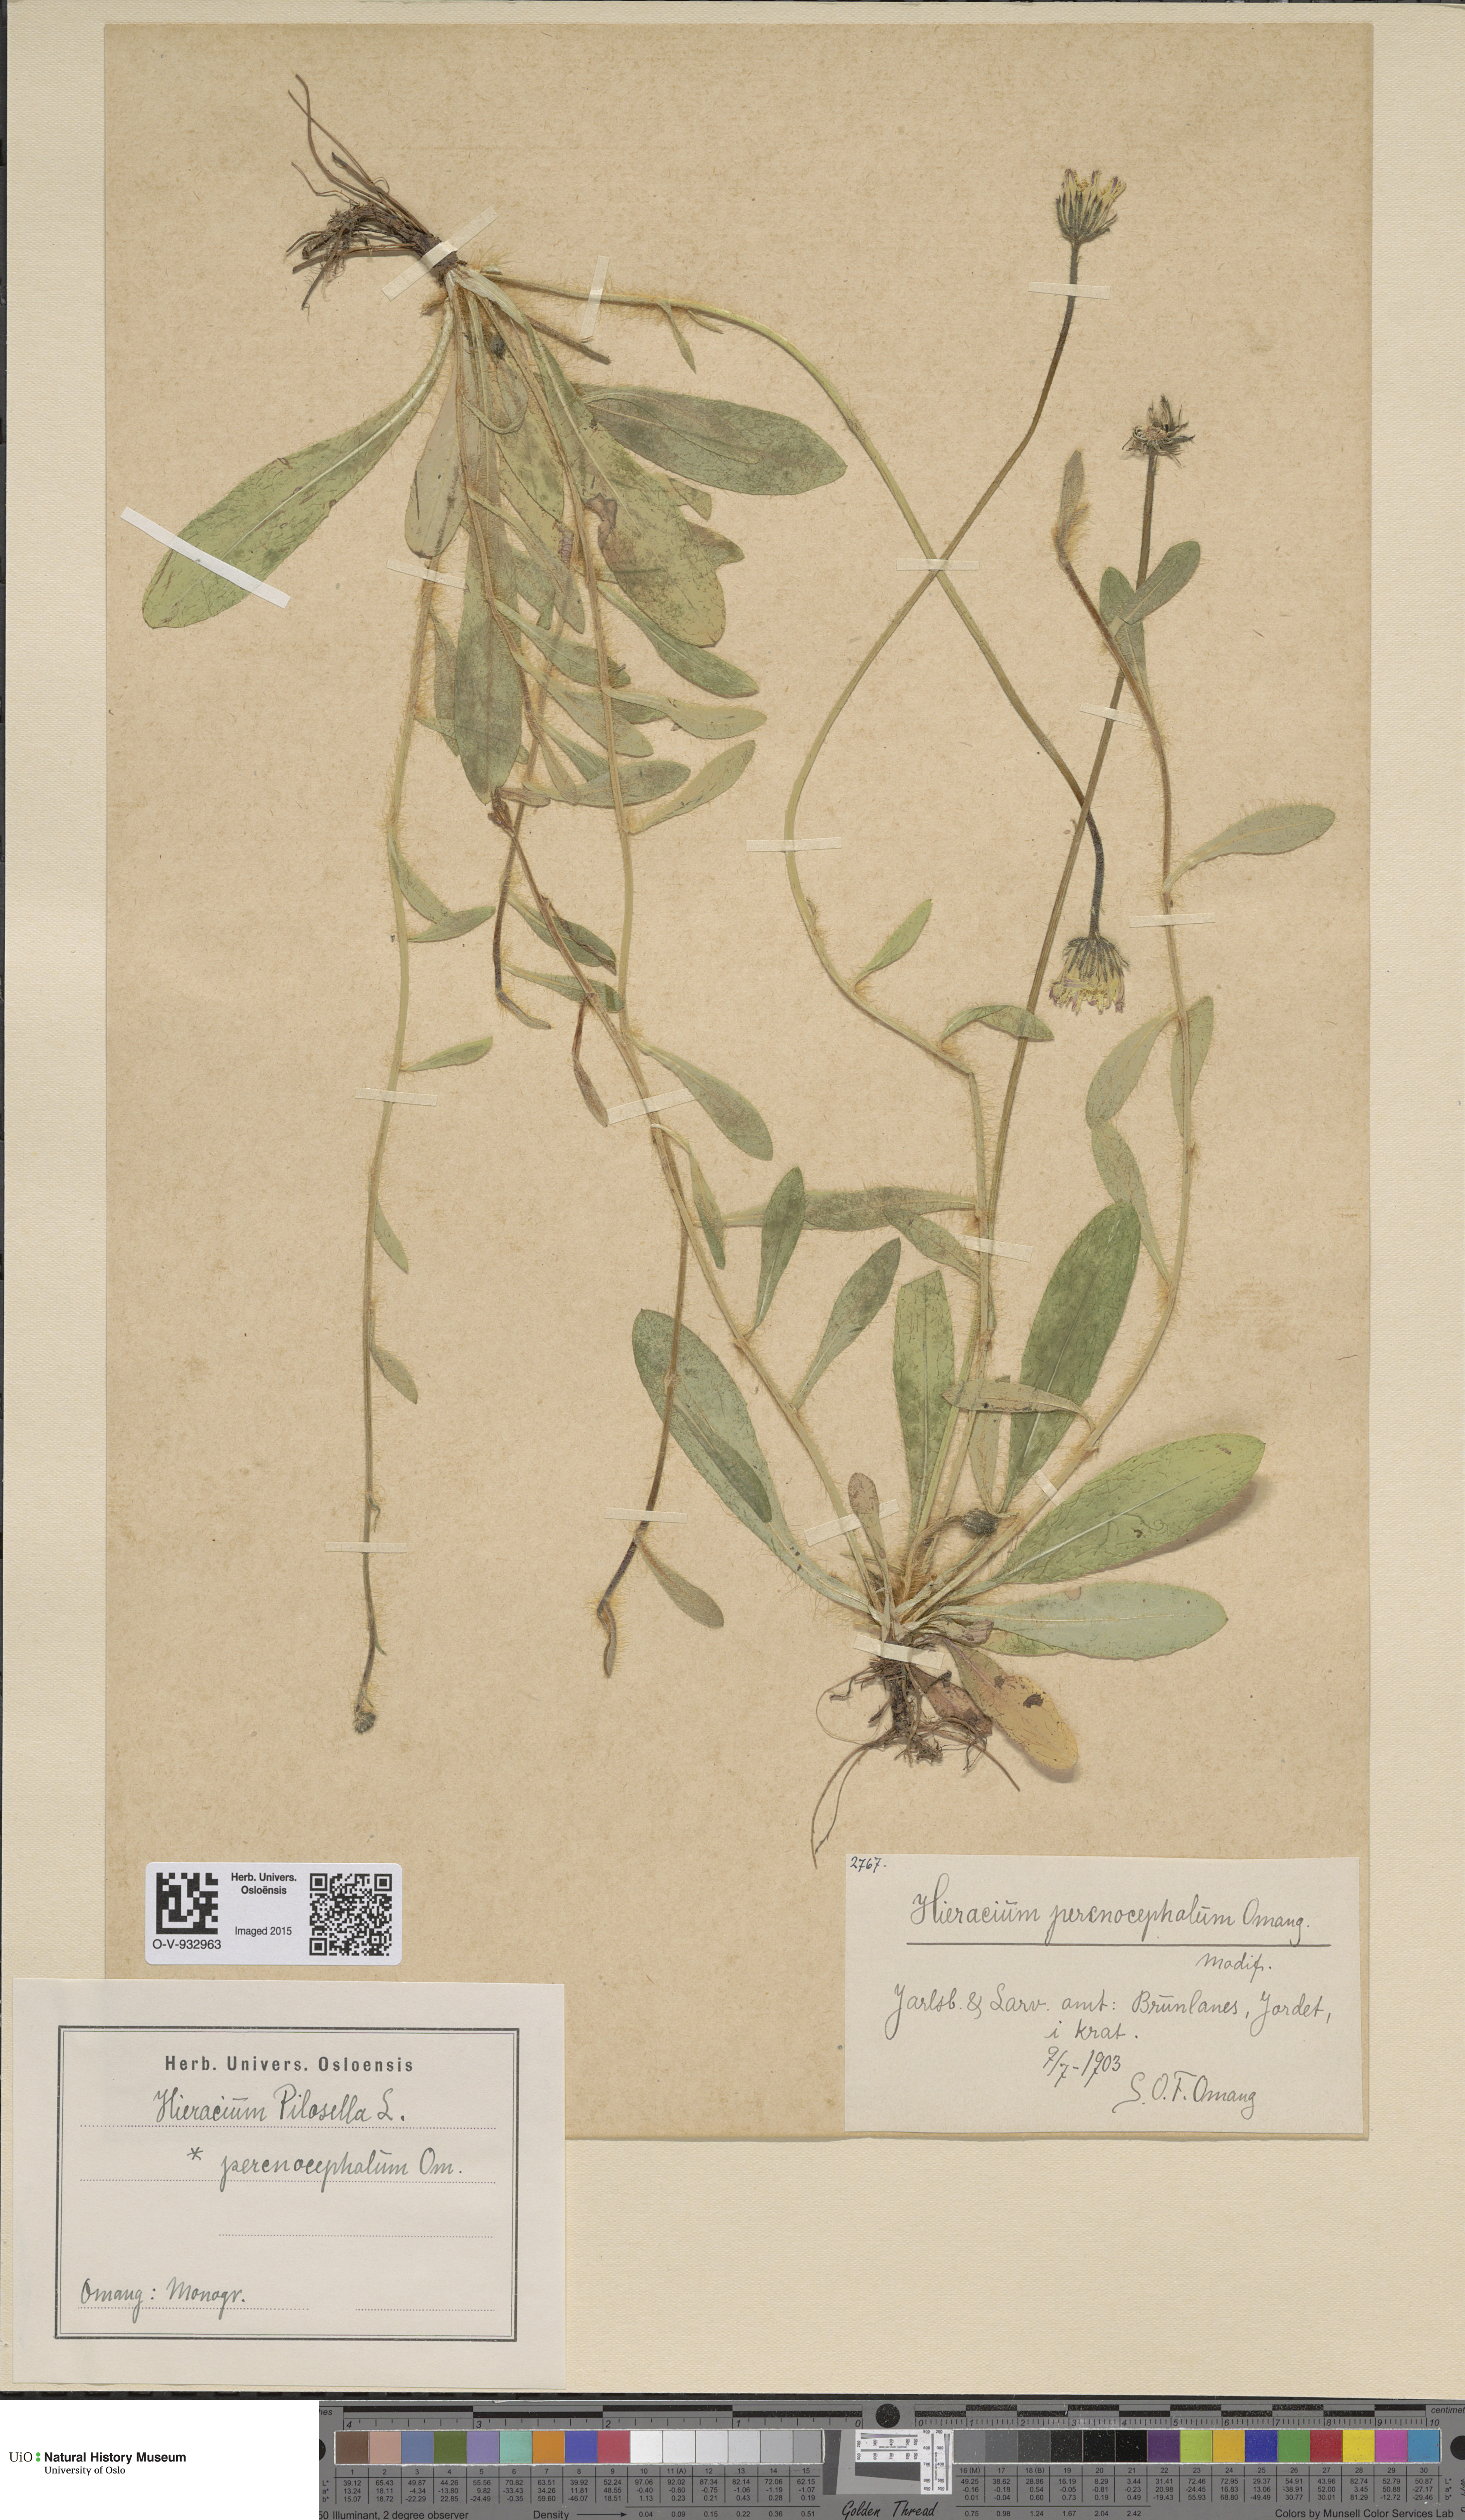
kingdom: Plantae
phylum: Tracheophyta
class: Magnoliopsida
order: Asterales
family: Asteraceae
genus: Pilosella
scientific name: Pilosella officinarum
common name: Mouse-ear hawkweed
